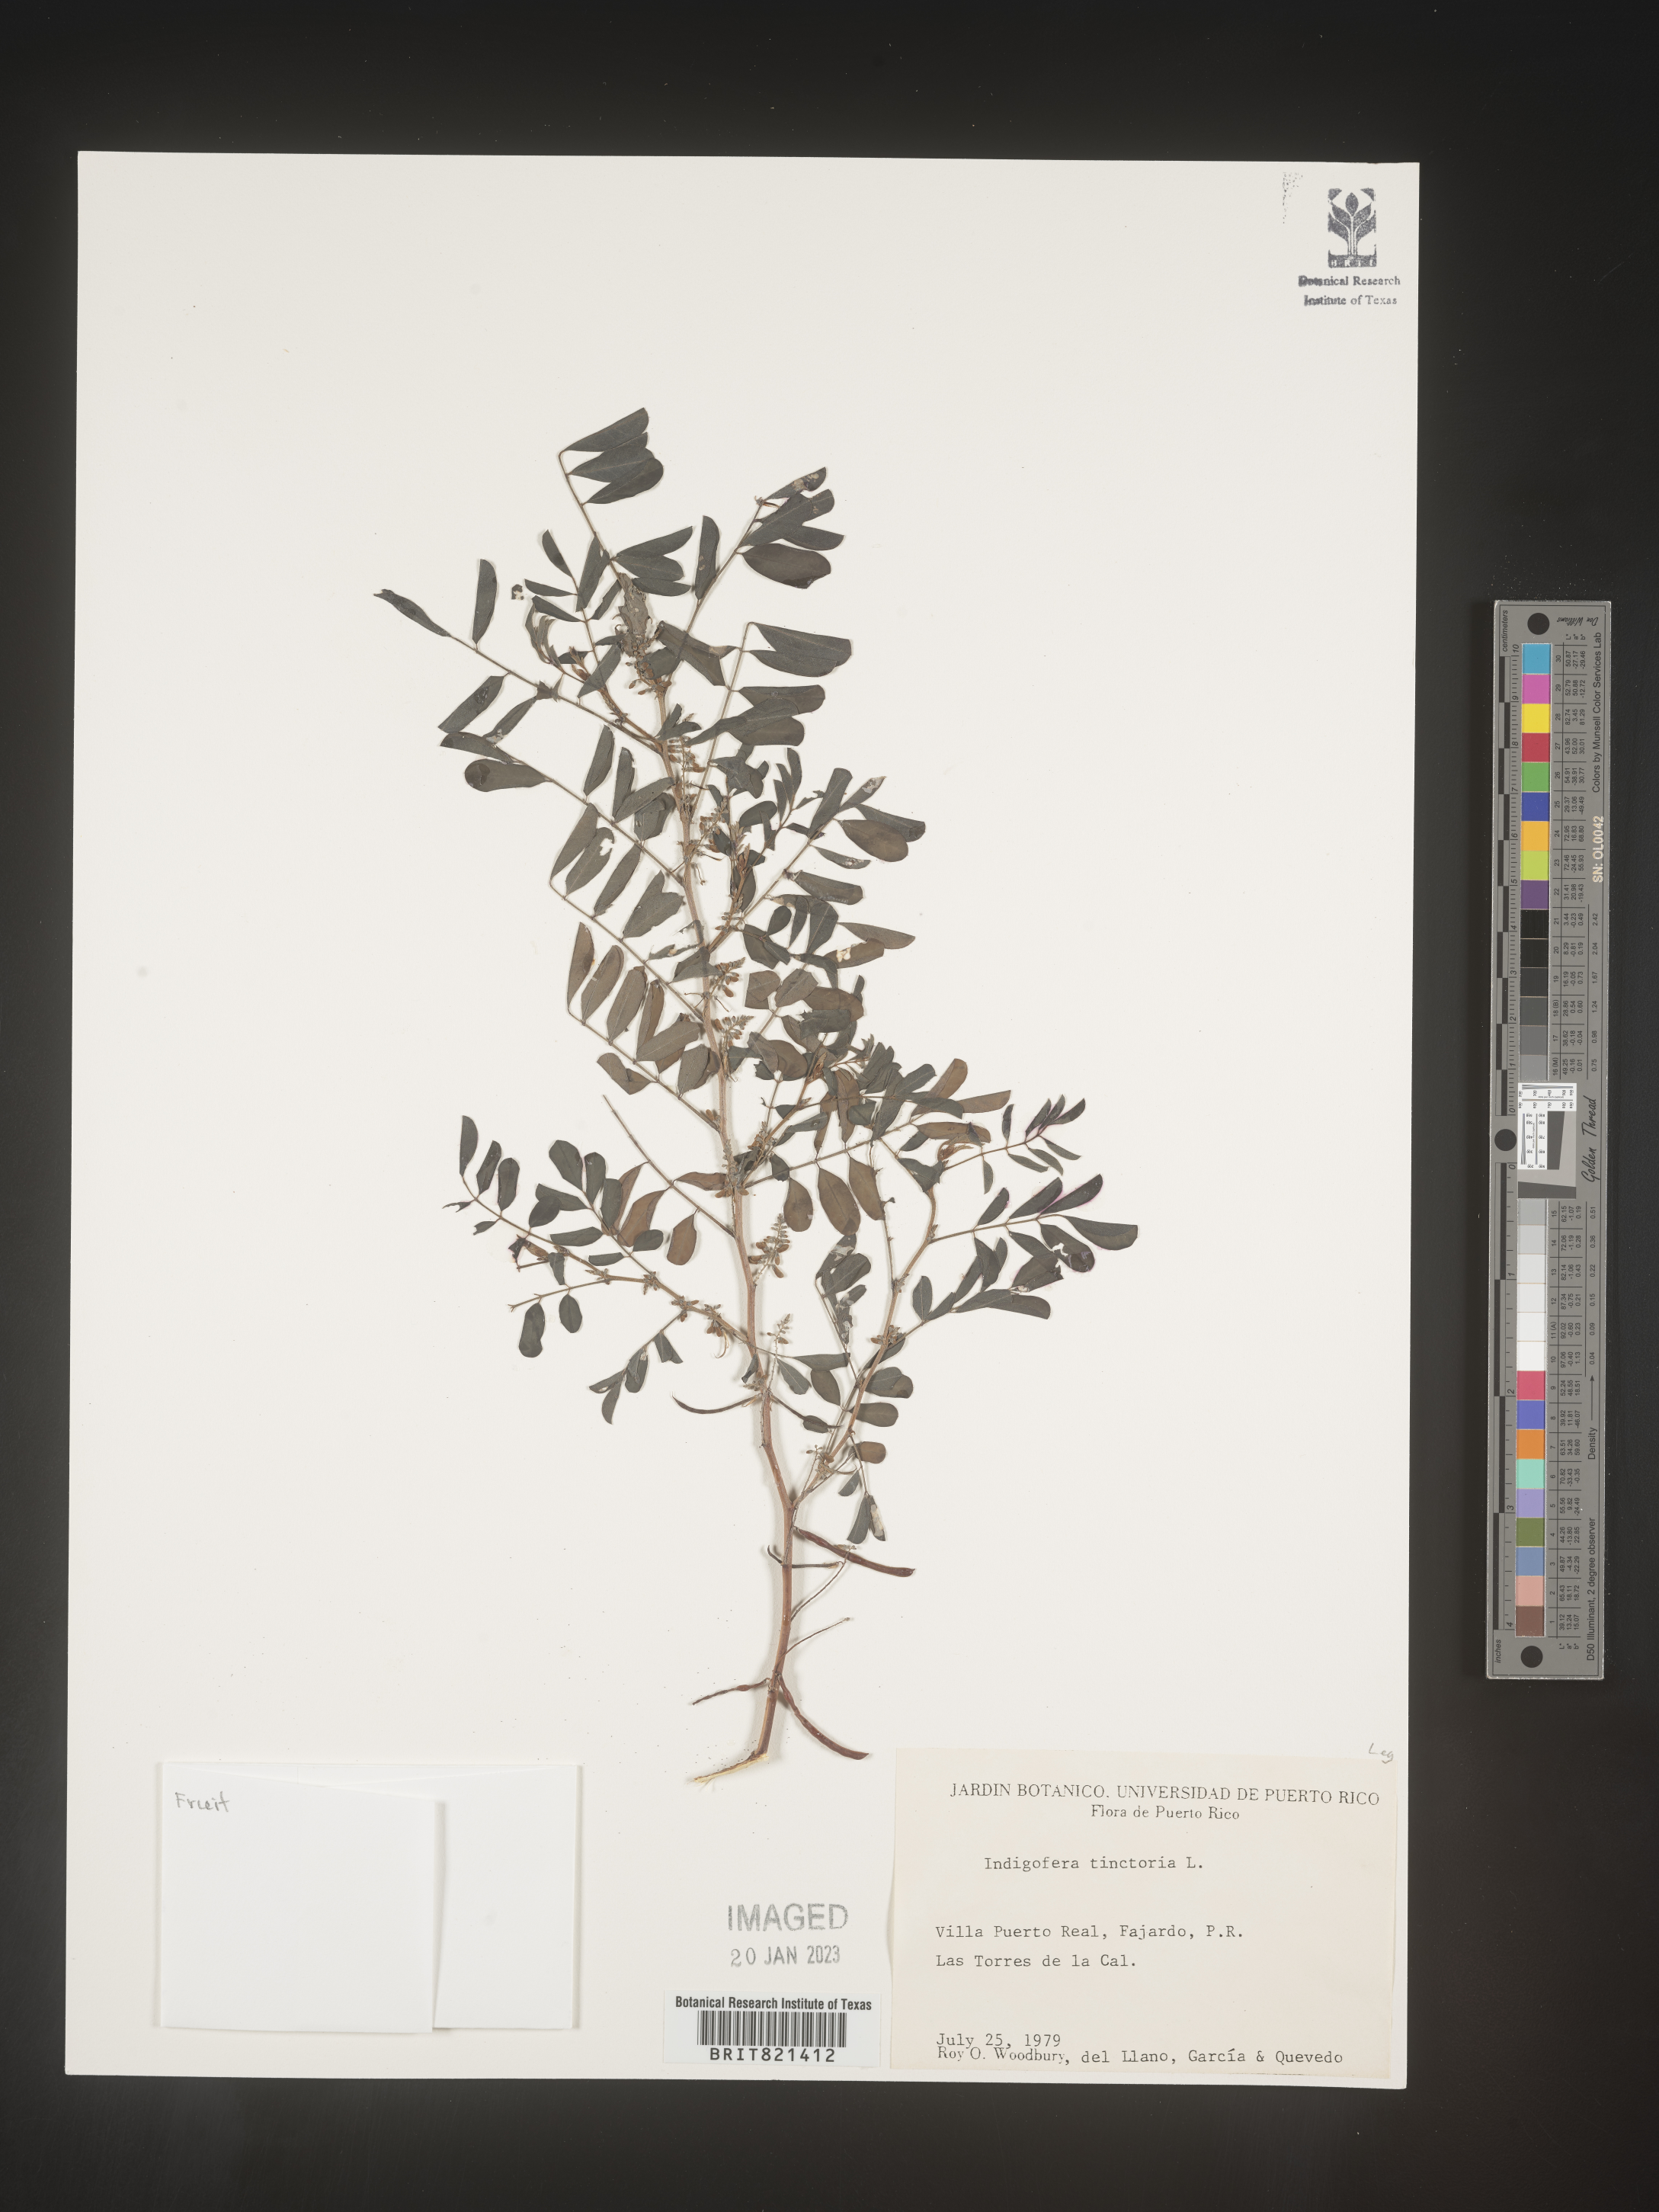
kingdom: Plantae
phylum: Tracheophyta
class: Magnoliopsida
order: Fabales
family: Fabaceae
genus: Indigofera
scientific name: Indigofera
